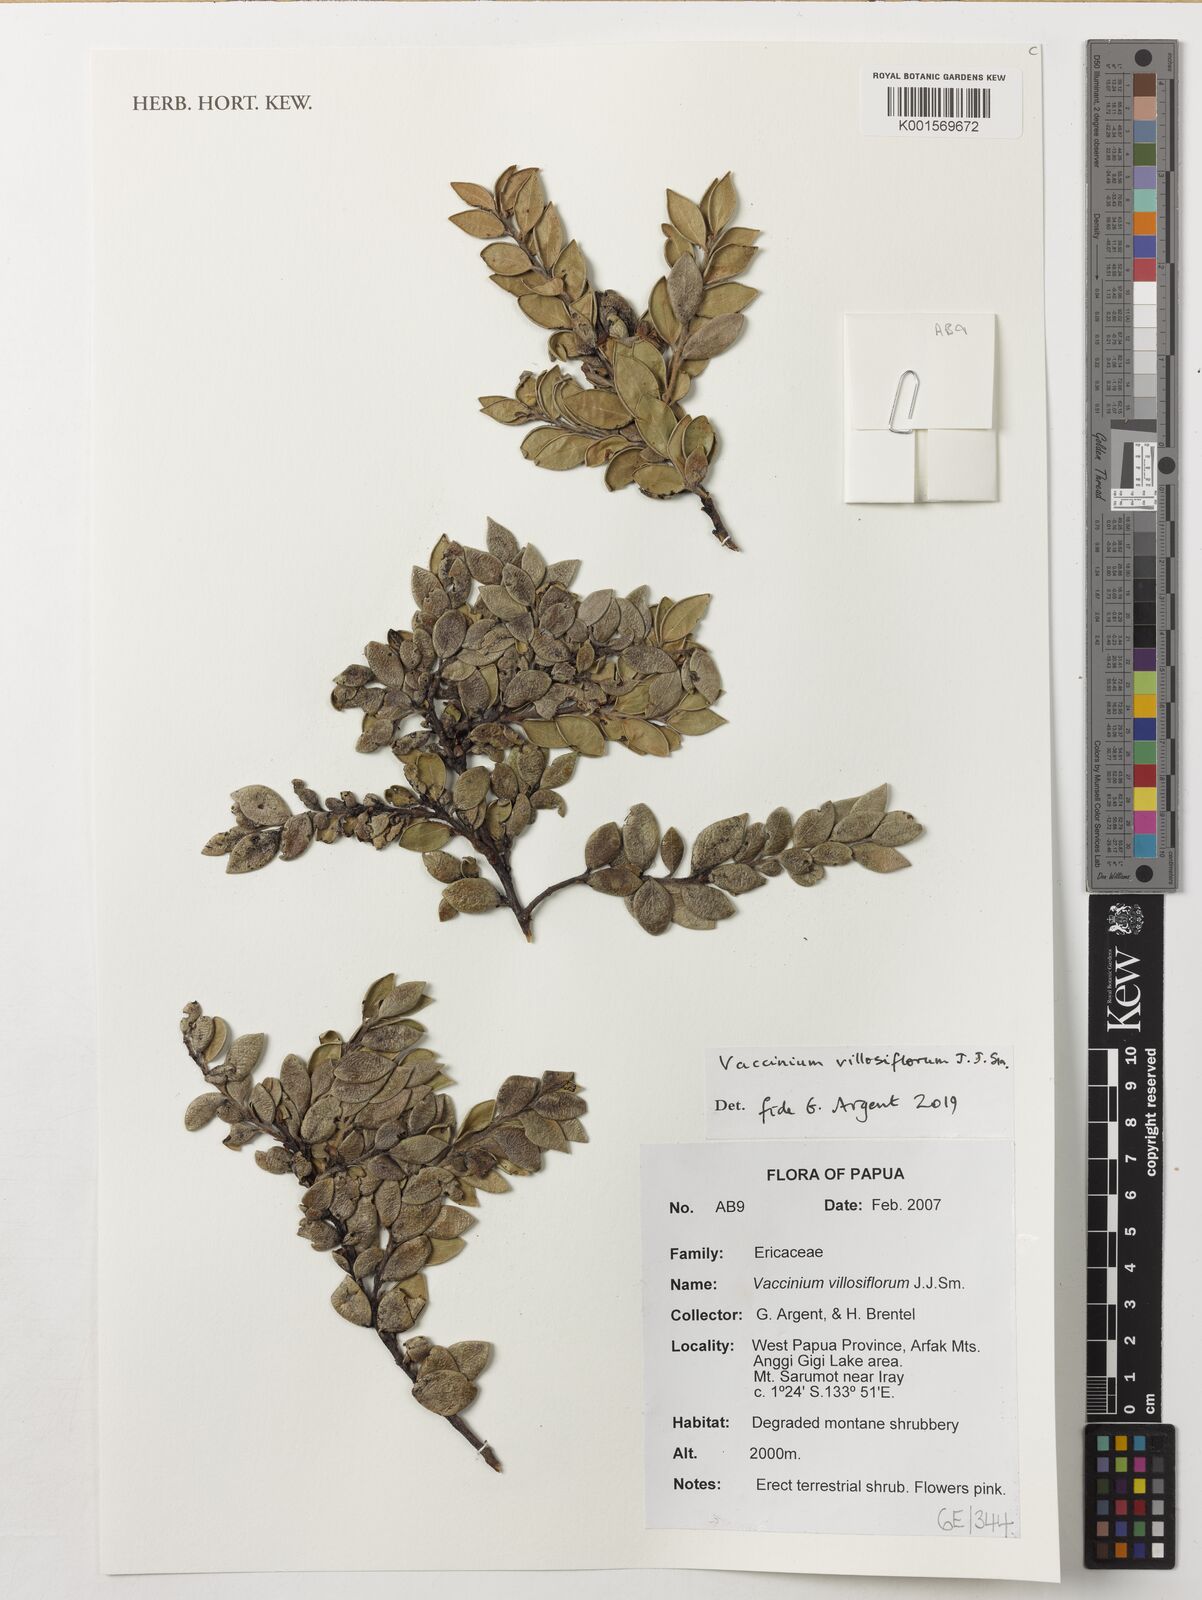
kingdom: Plantae
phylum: Tracheophyta
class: Magnoliopsida
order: Ericales
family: Ericaceae
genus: Vaccinium
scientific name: Vaccinium villosiflorum
